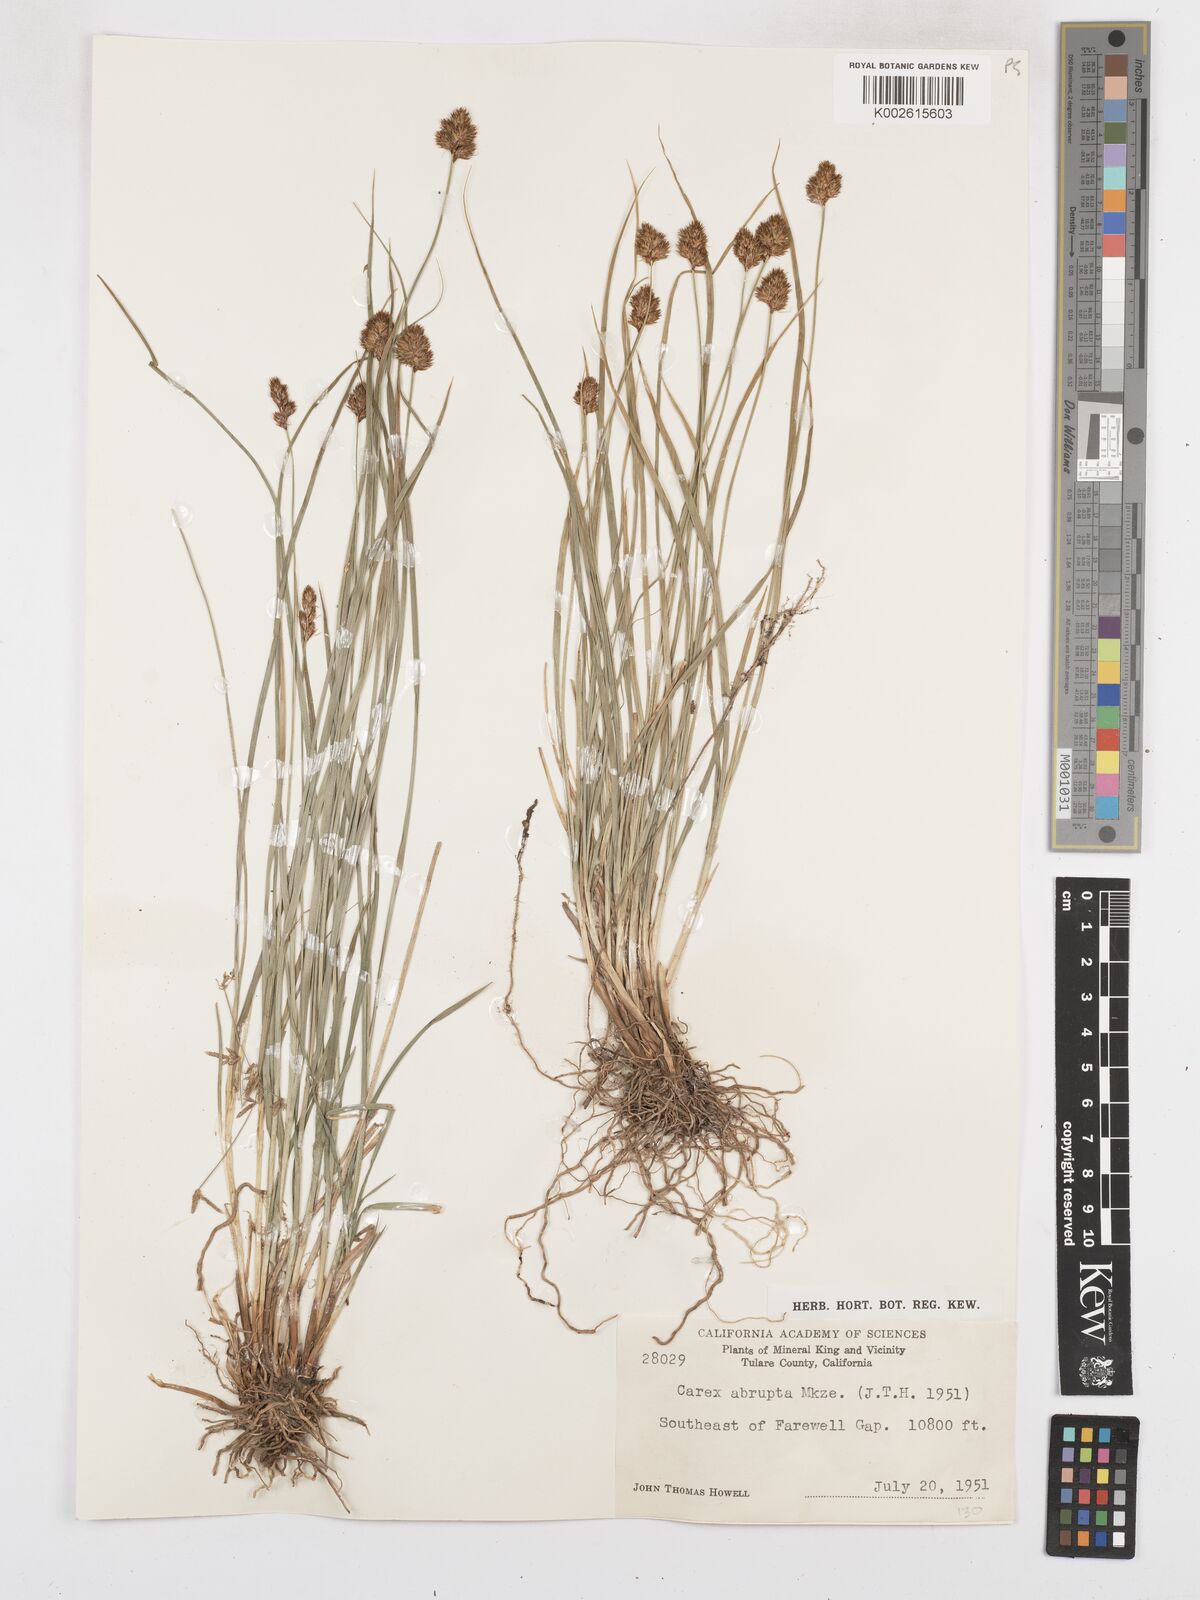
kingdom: Plantae
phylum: Tracheophyta
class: Liliopsida
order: Poales
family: Cyperaceae
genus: Carex
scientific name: Carex abrupta
